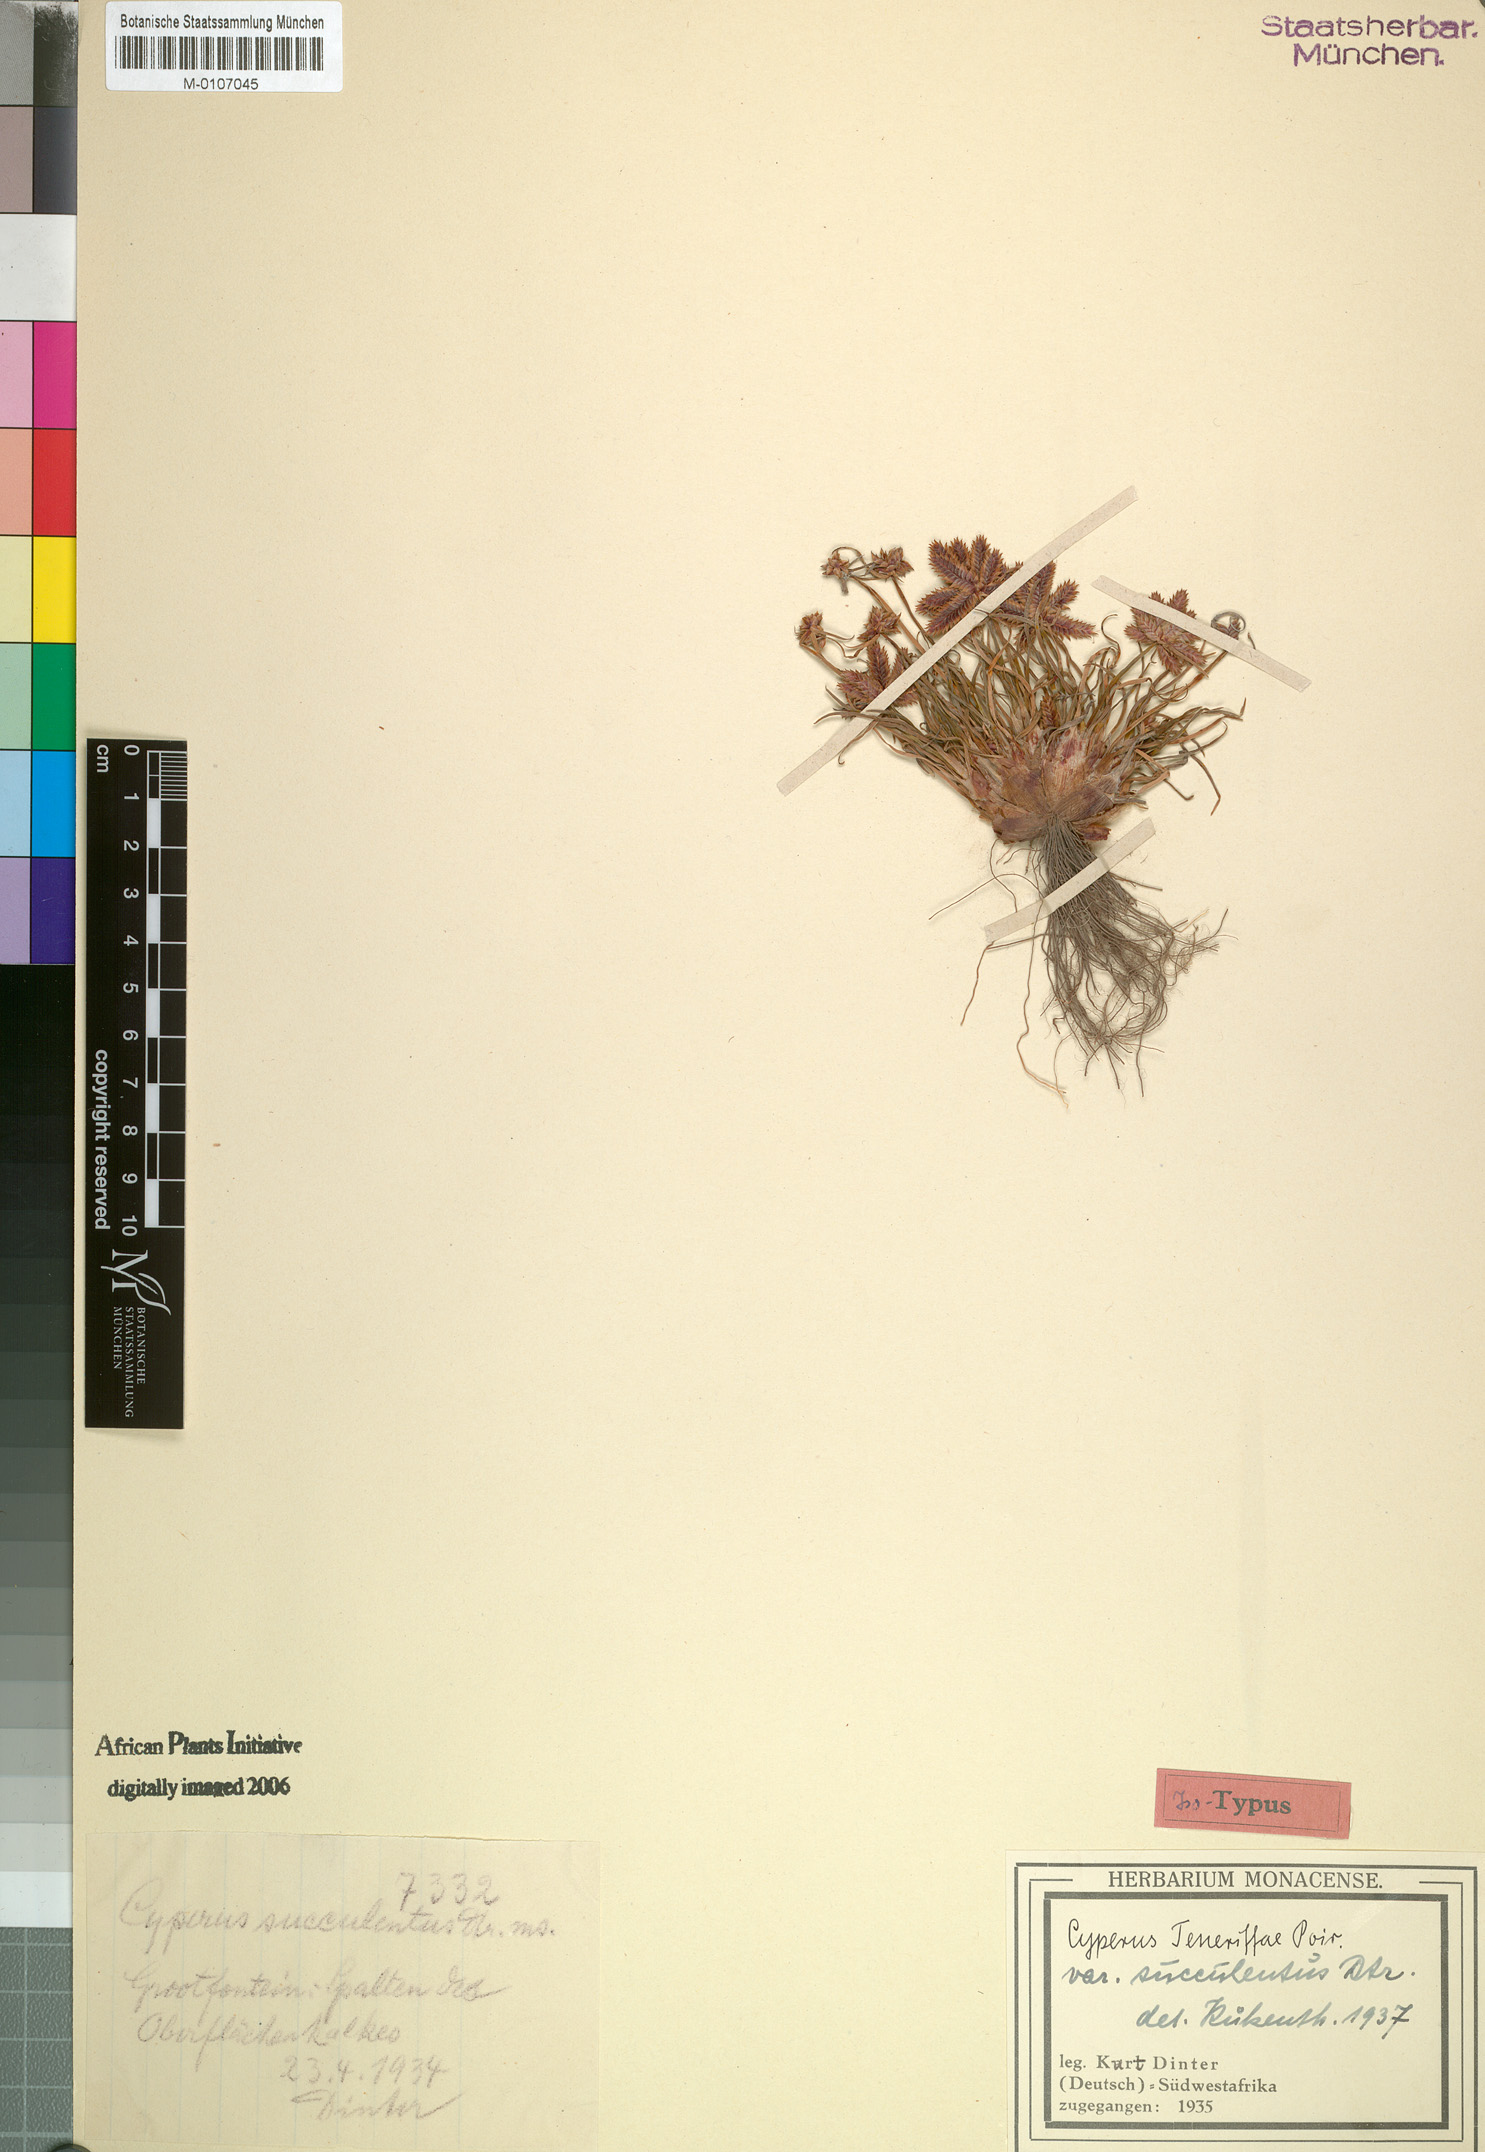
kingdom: Plantae
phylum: Tracheophyta
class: Liliopsida
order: Poales
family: Cyperaceae
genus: Cyperus
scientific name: Cyperus rubicundus
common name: Coco-grass
